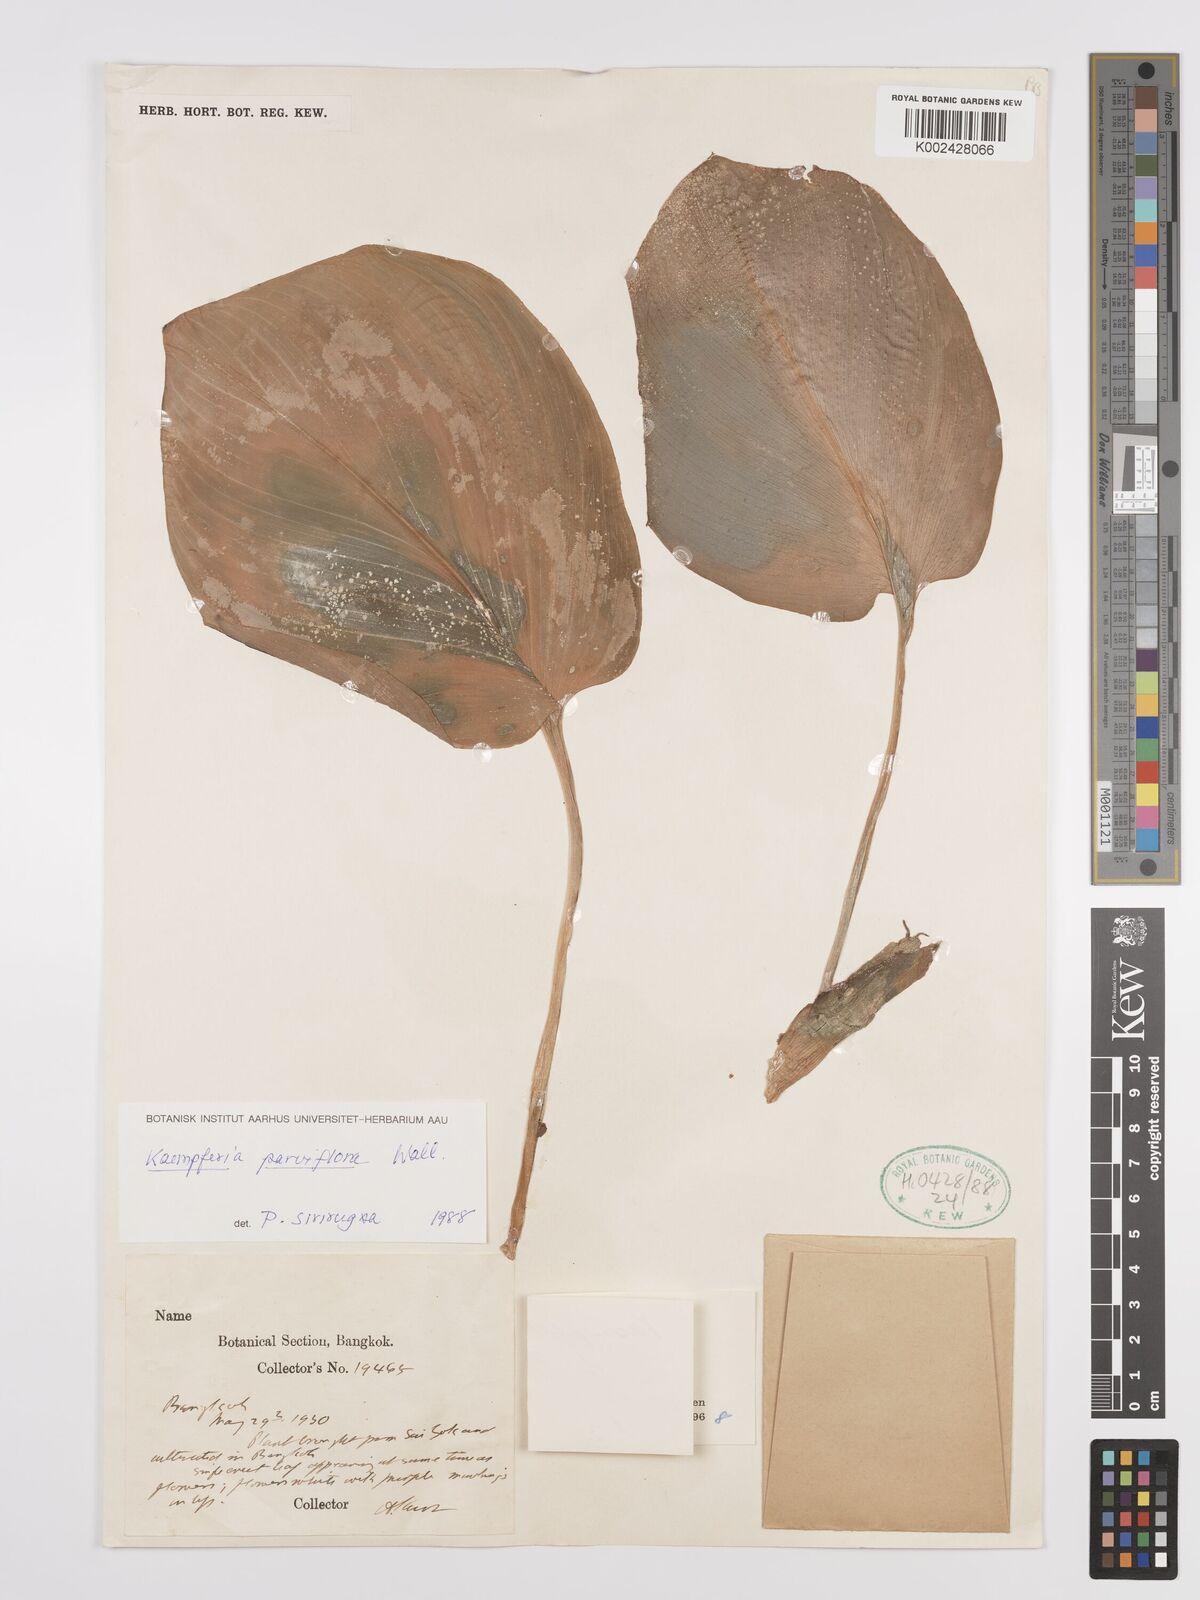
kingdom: Plantae
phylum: Tracheophyta
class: Liliopsida
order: Zingiberales
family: Zingiberaceae
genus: Kaempferia
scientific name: Kaempferia parviflora
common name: Black galingale
